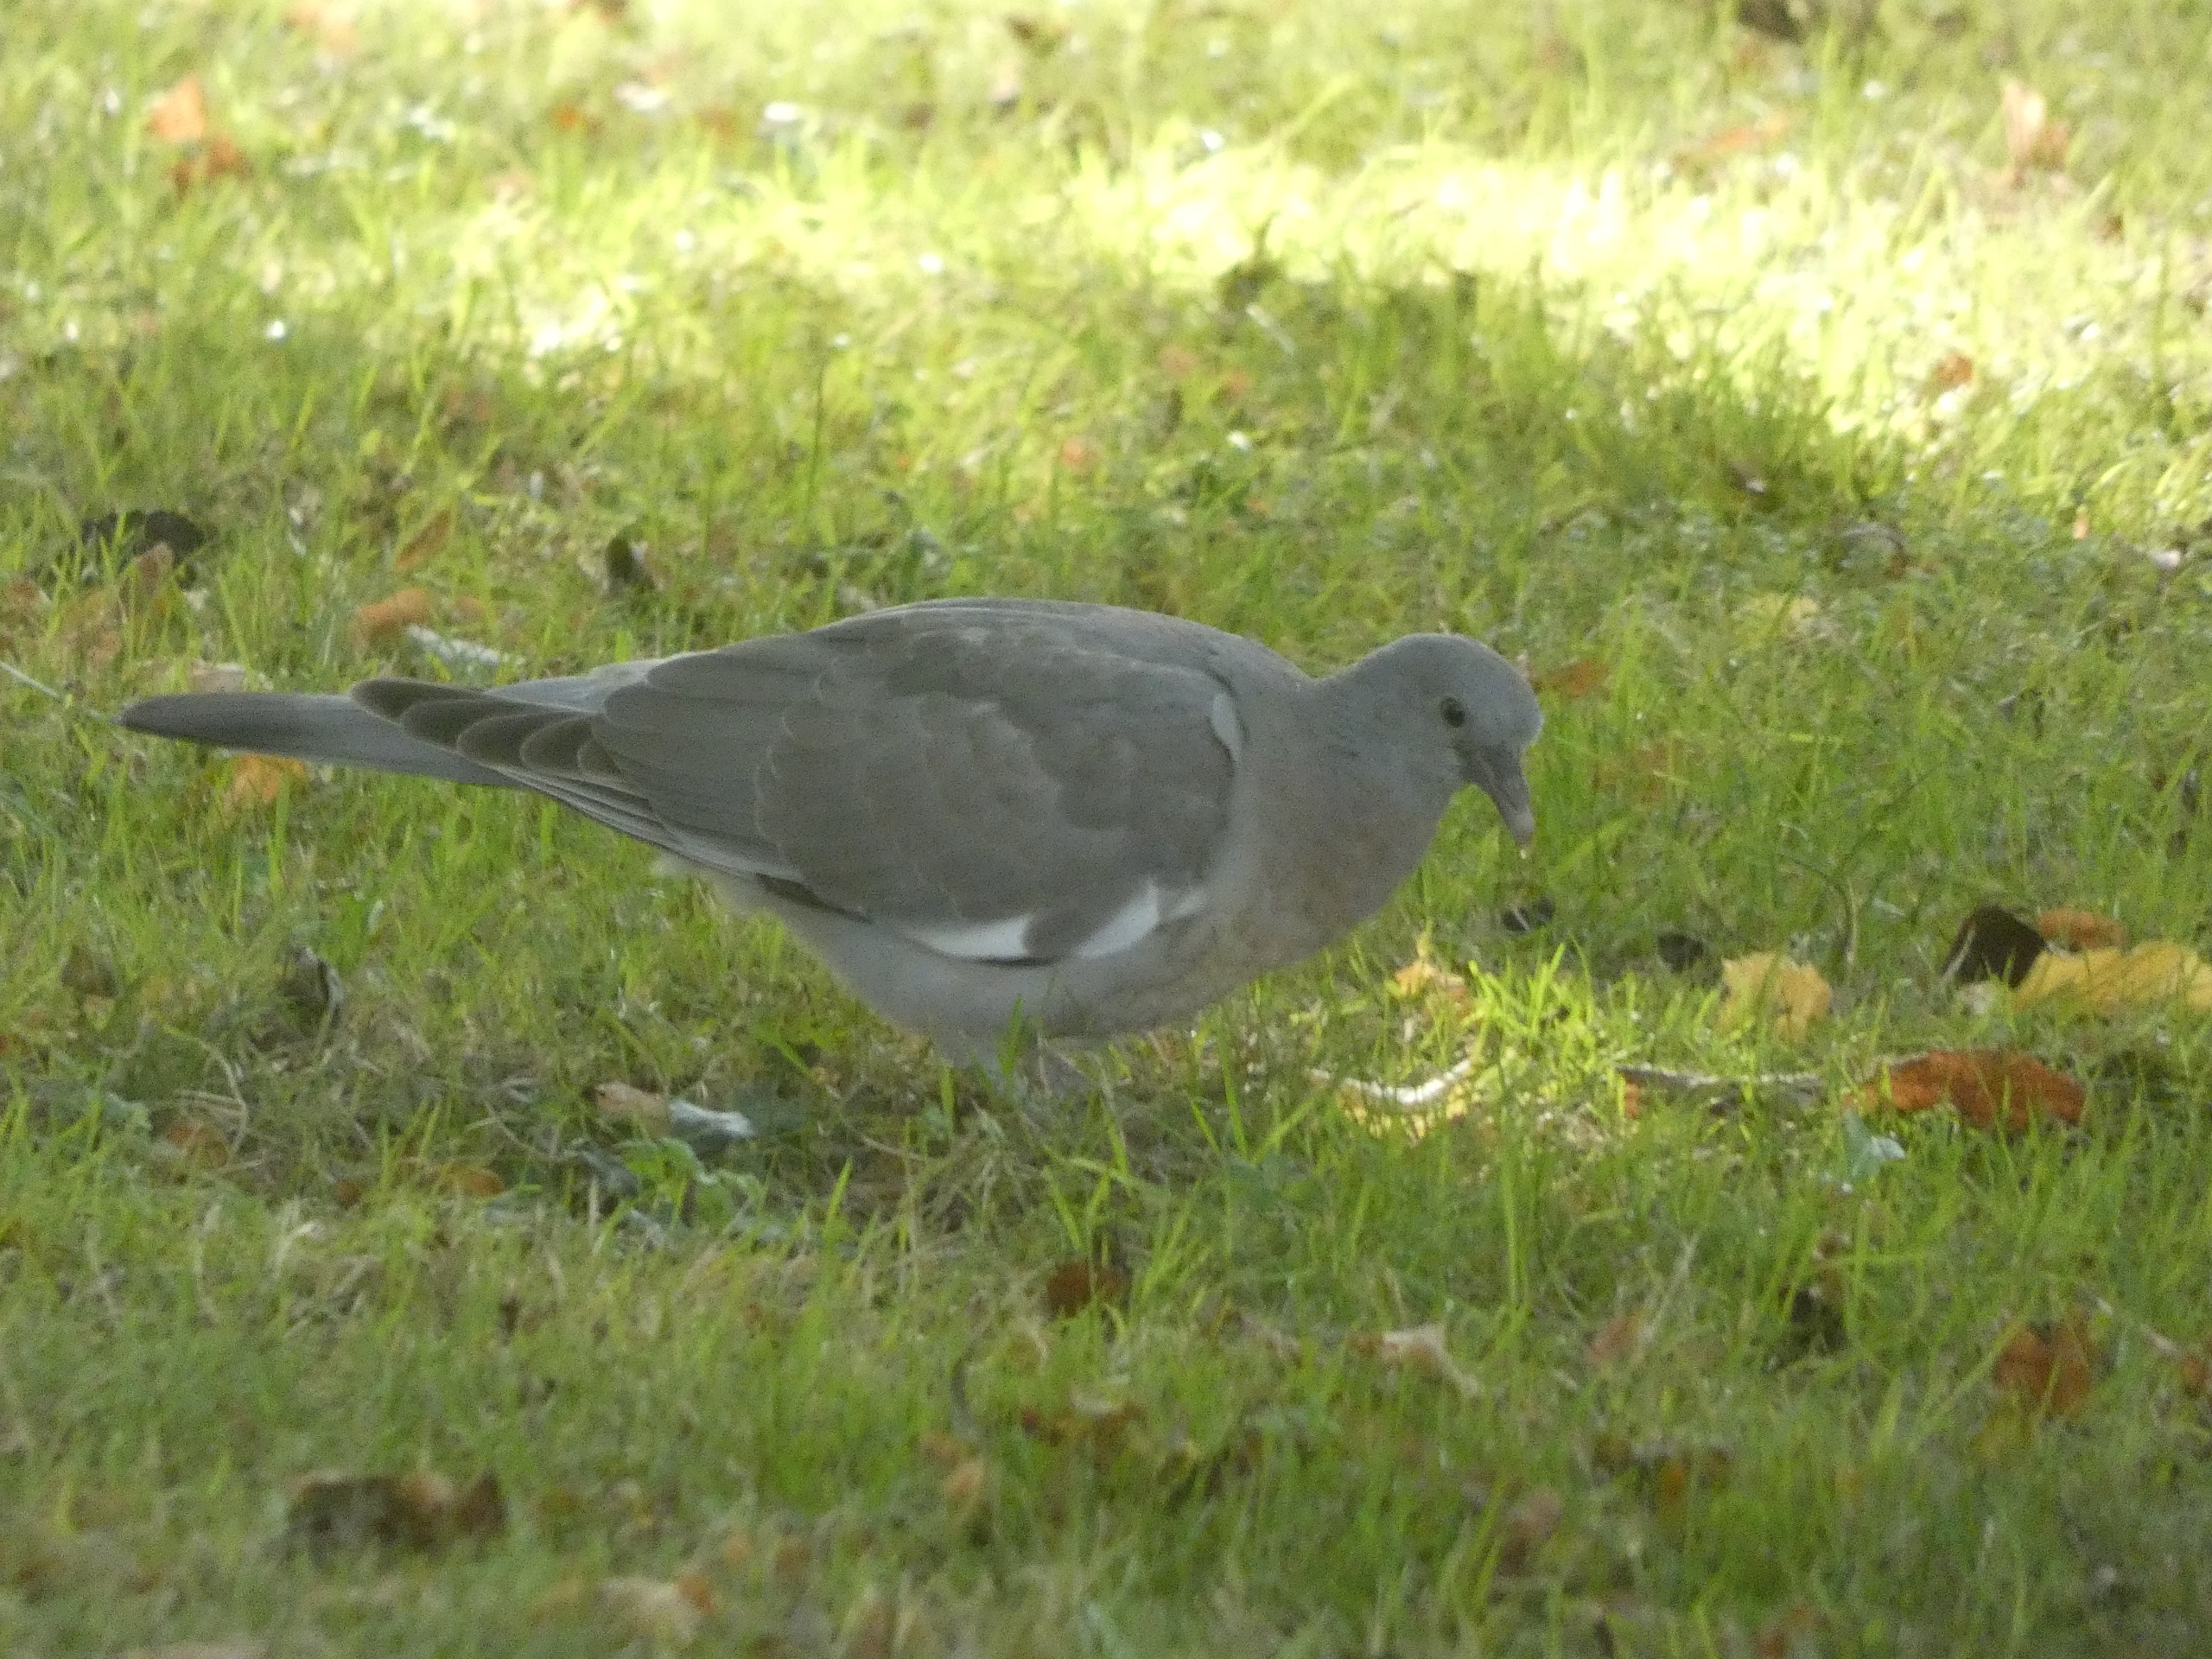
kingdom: Animalia
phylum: Chordata
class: Aves
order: Columbiformes
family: Columbidae
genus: Columba
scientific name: Columba palumbus
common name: Ringdue
